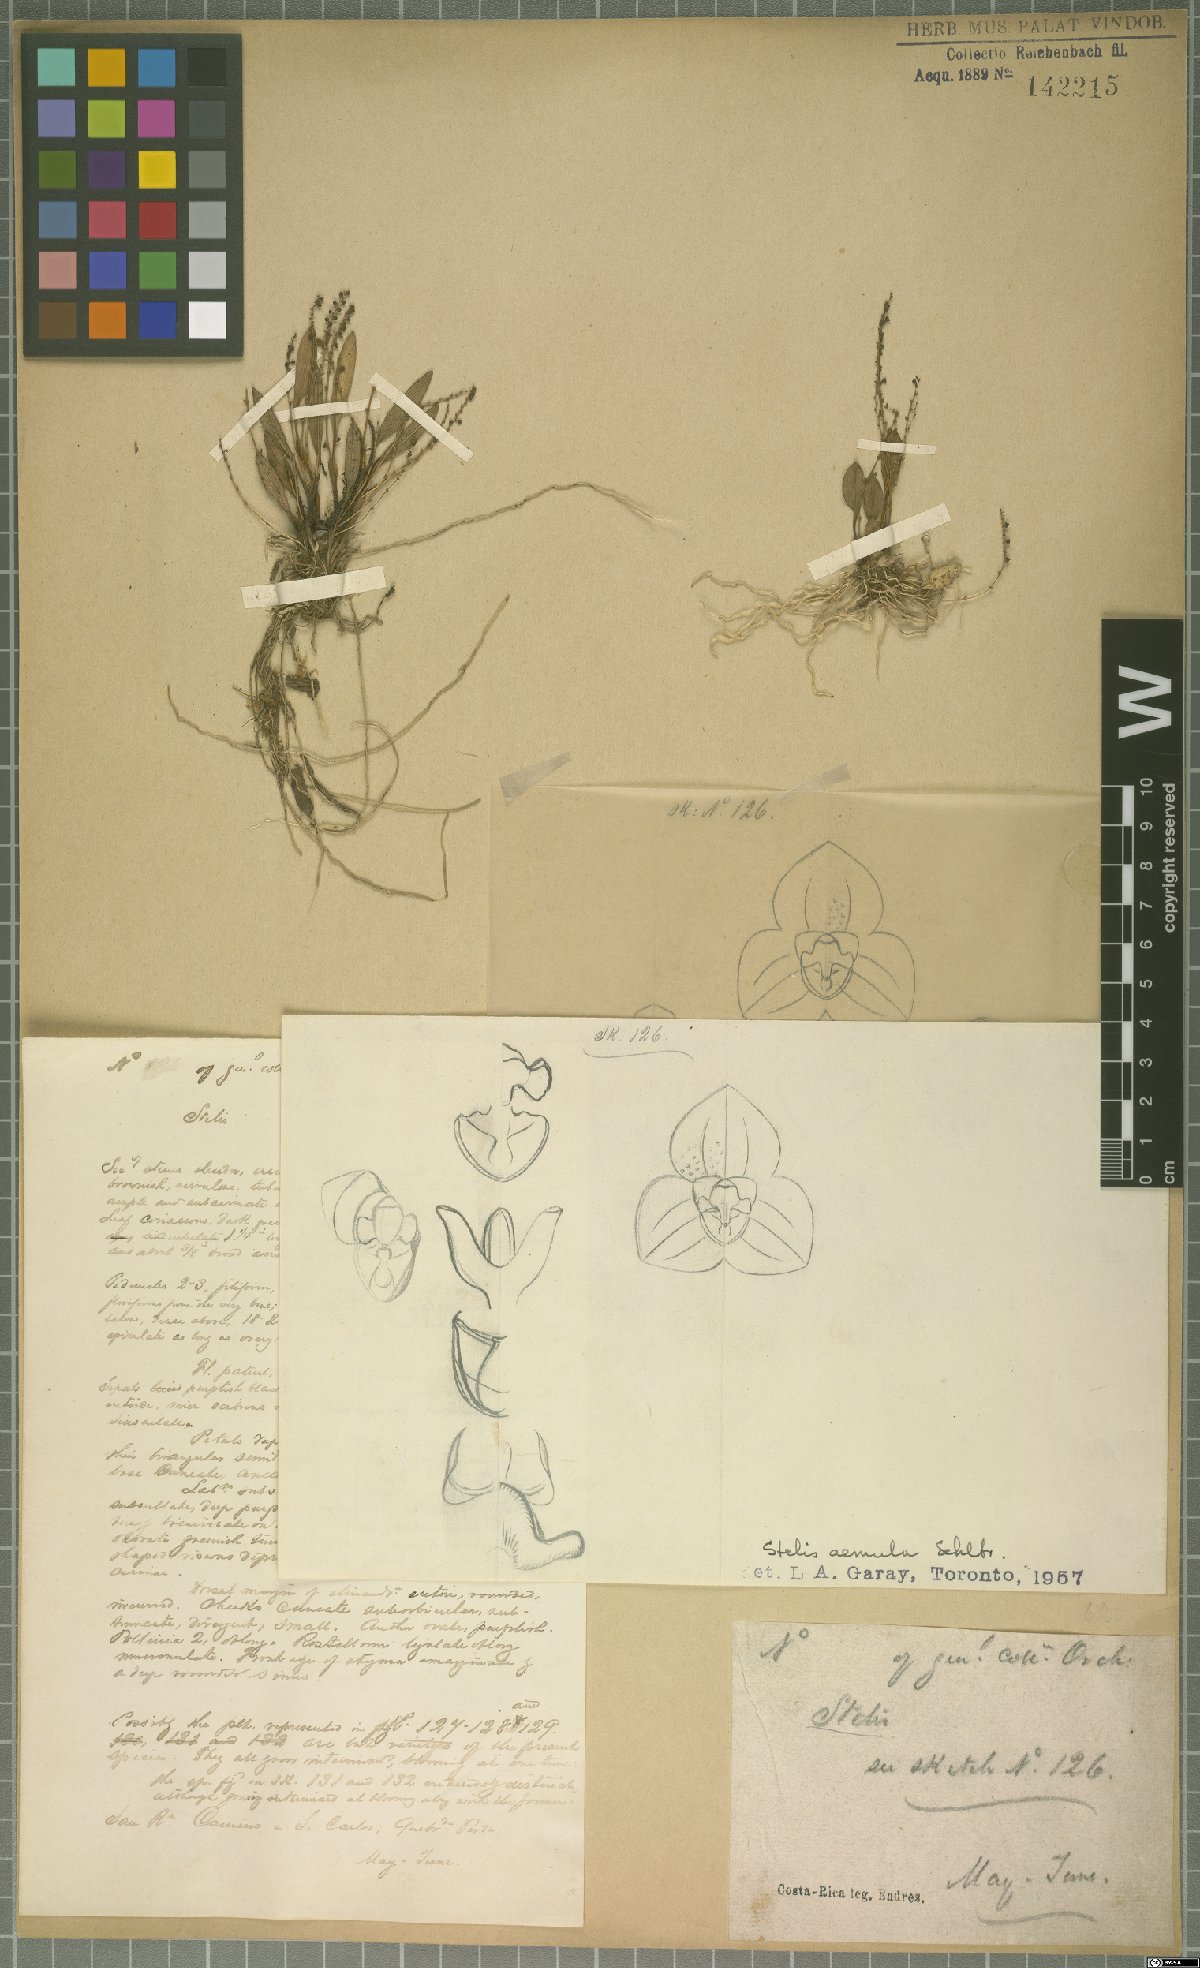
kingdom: Plantae
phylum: Tracheophyta
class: Liliopsida
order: Asparagales
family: Orchidaceae
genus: Stelis
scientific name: Stelis aemula
